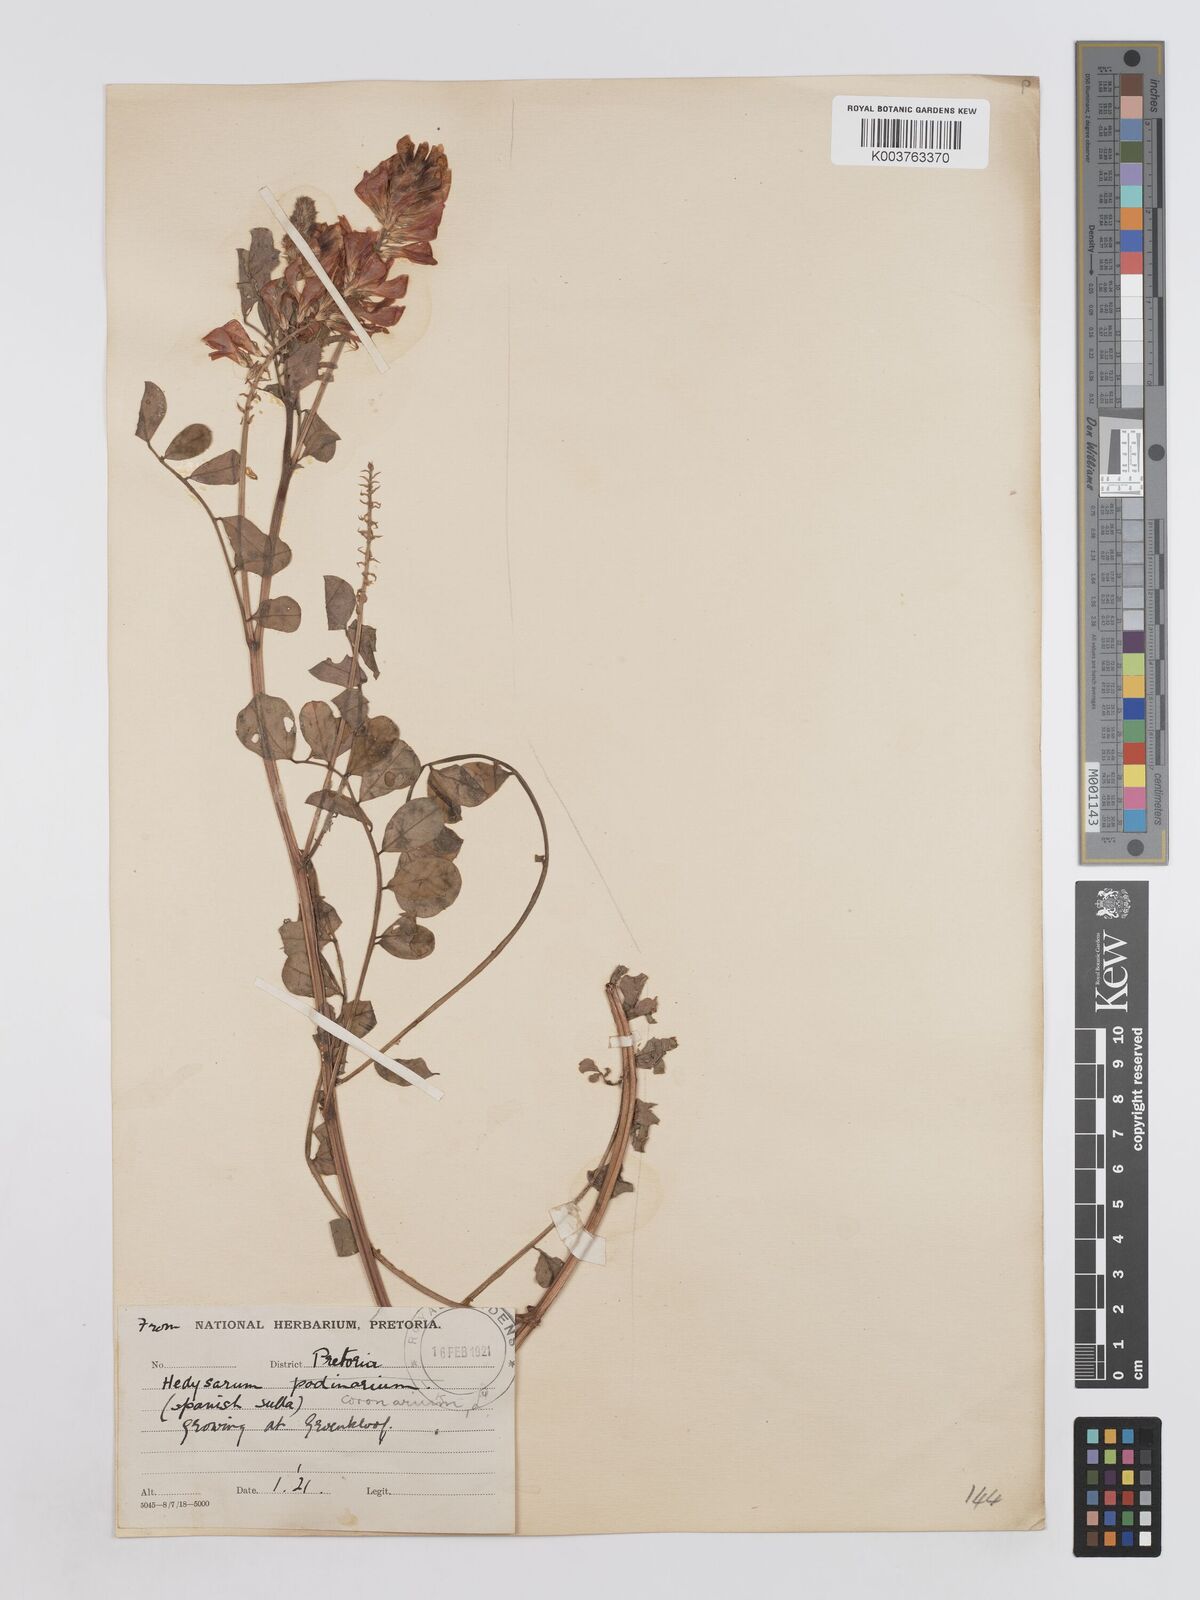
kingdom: Plantae
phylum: Tracheophyta
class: Magnoliopsida
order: Fabales
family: Fabaceae
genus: Sulla
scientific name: Sulla coronaria
